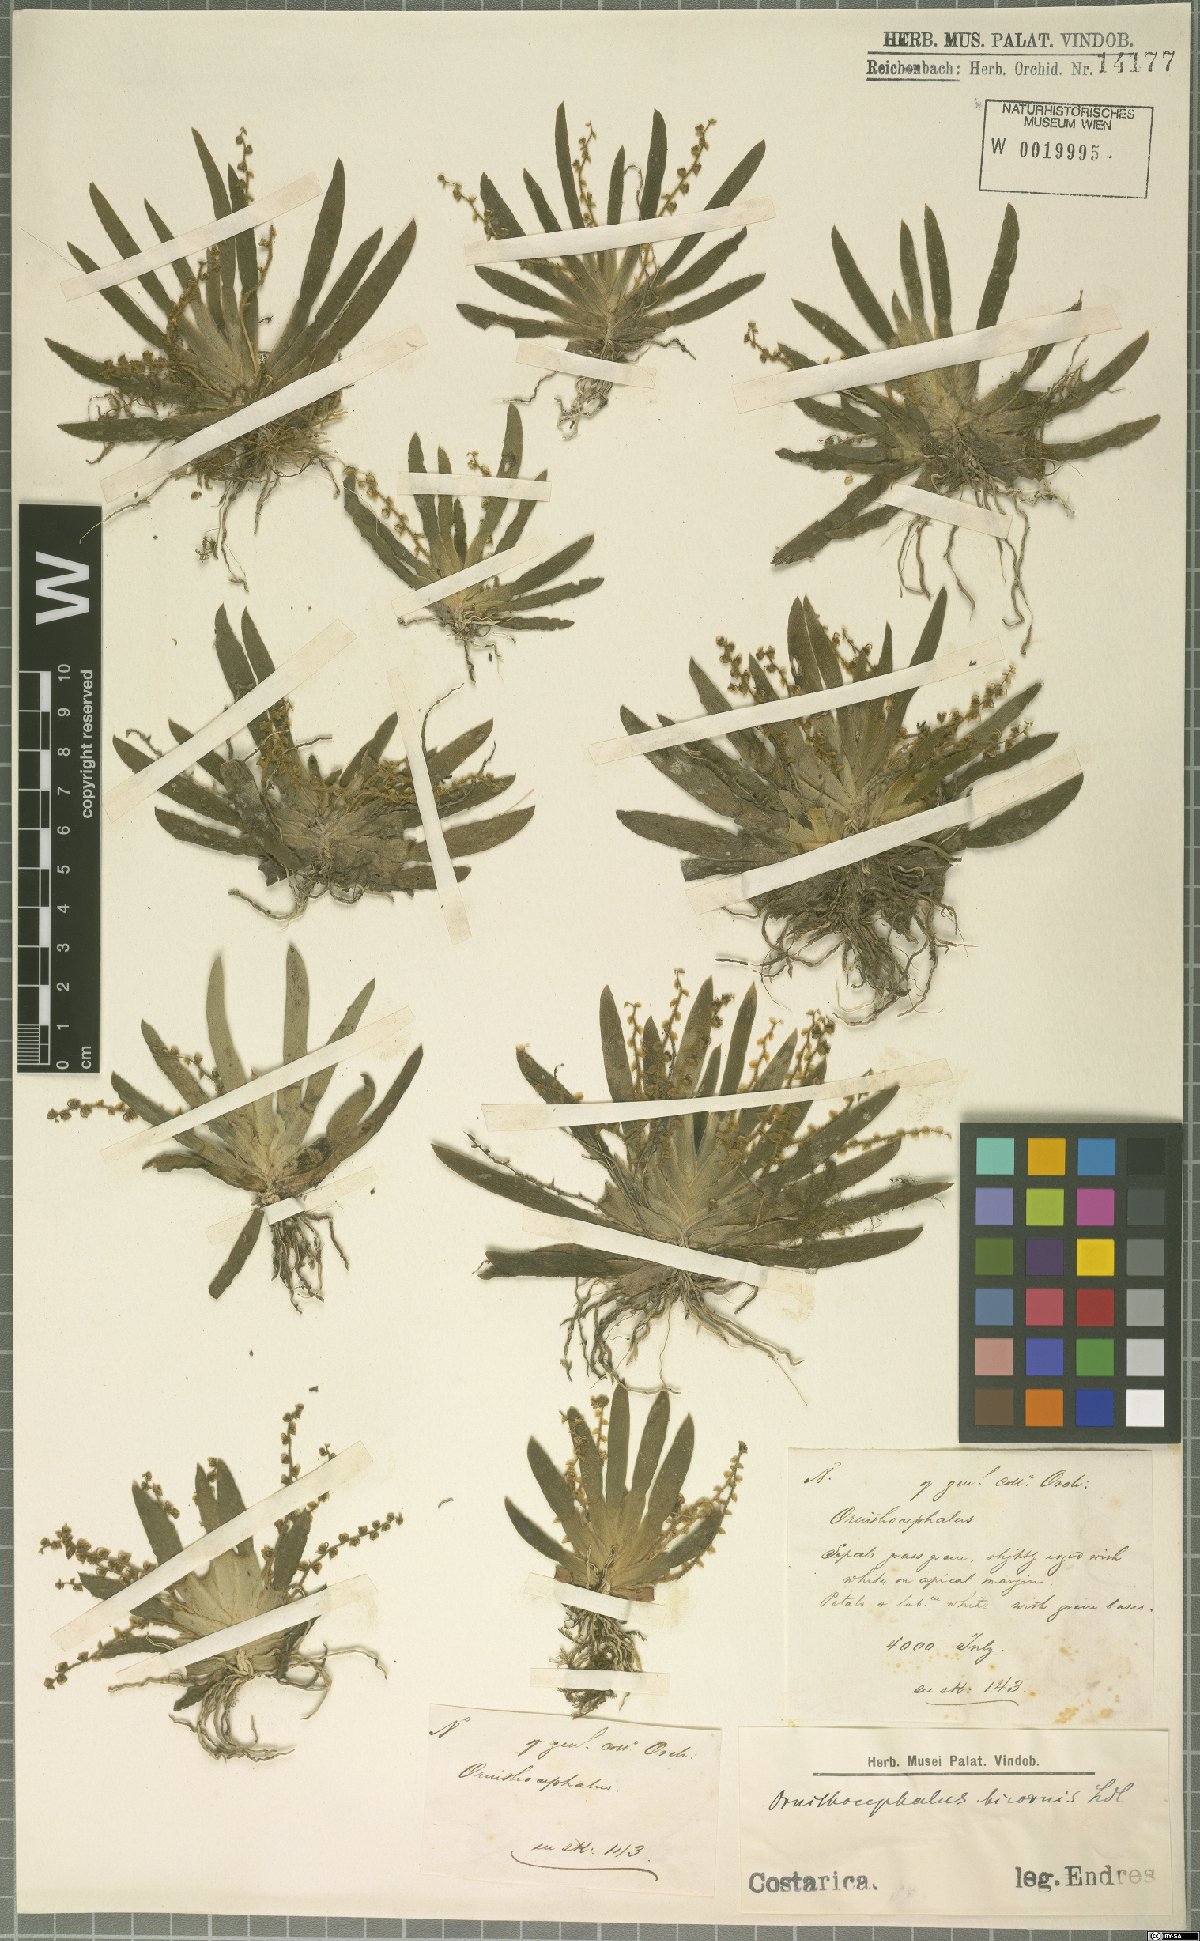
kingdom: Plantae
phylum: Tracheophyta
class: Liliopsida
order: Asparagales
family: Orchidaceae
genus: Ornithocephalus
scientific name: Ornithocephalus bicornis
